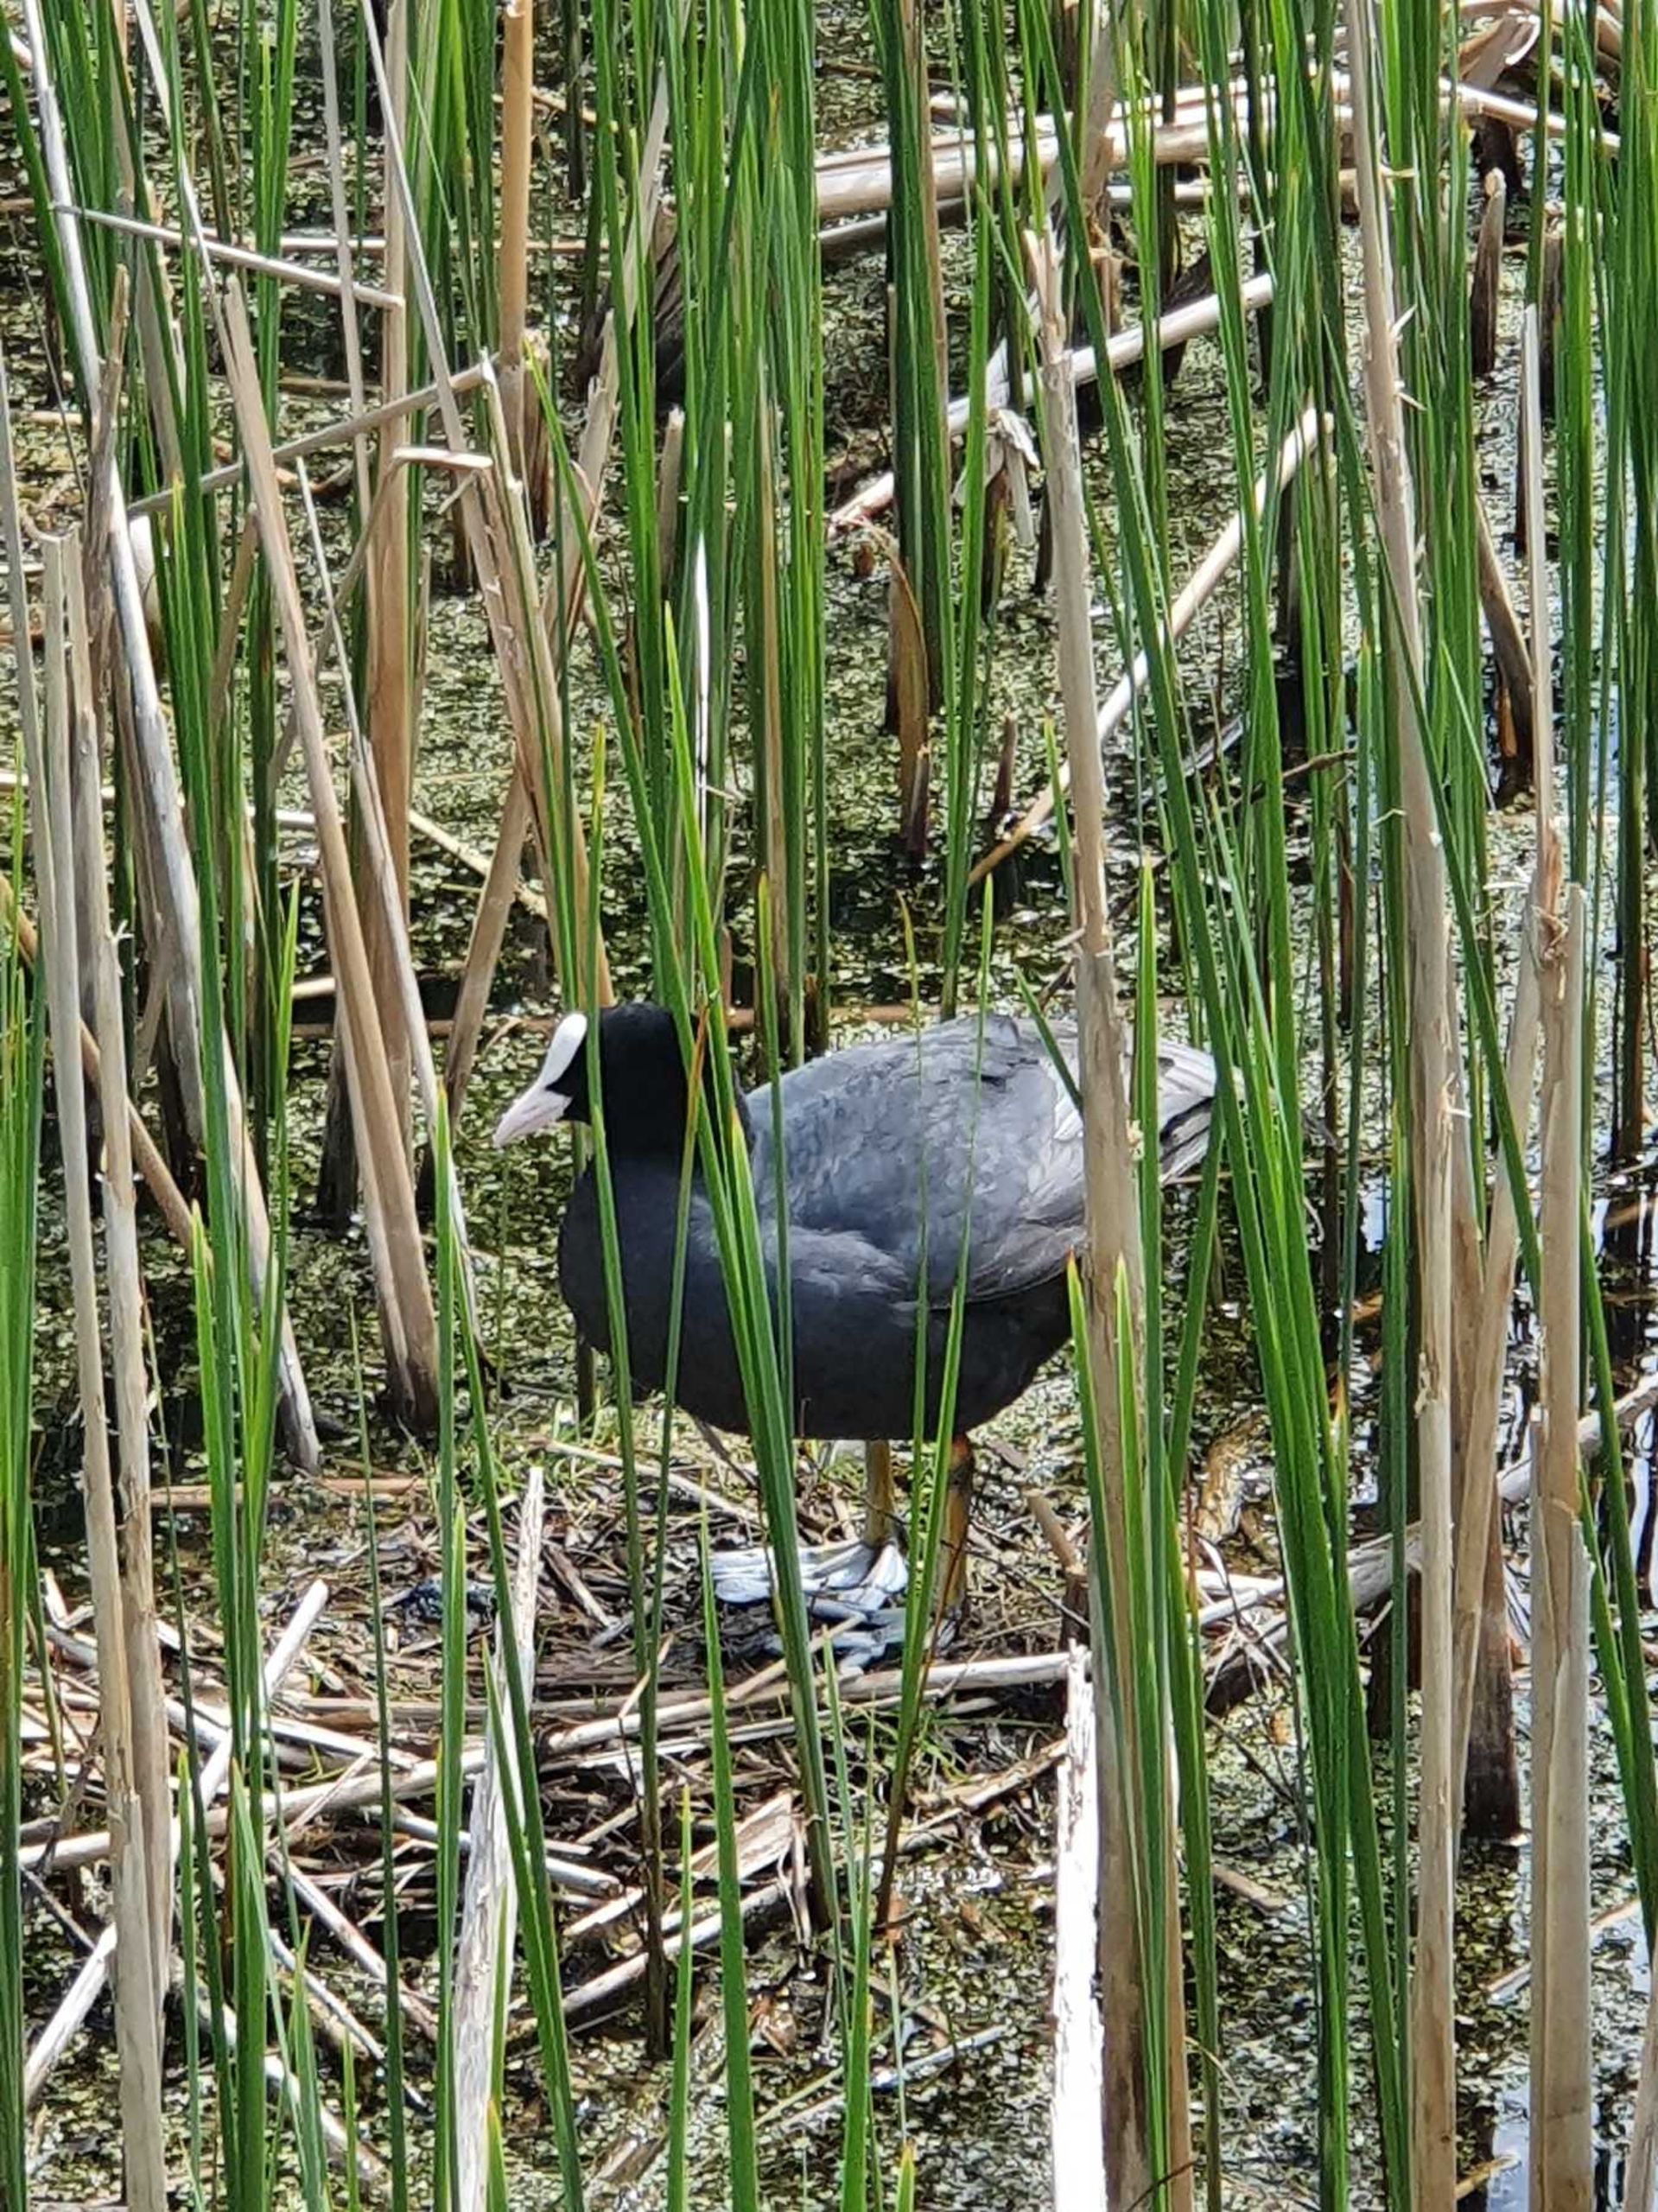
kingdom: Animalia
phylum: Chordata
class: Aves
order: Gruiformes
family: Rallidae
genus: Fulica
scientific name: Fulica atra
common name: Blishøne
